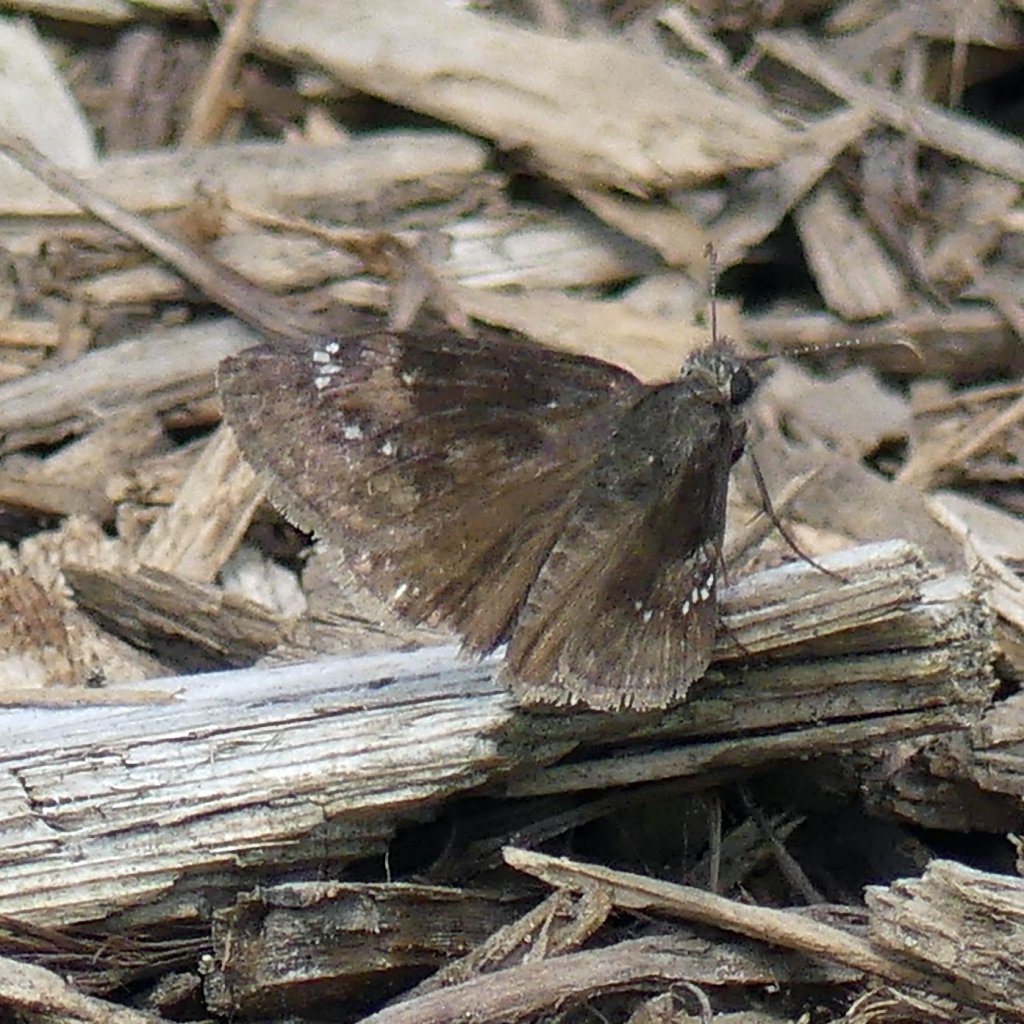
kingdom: Animalia
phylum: Arthropoda
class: Insecta
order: Lepidoptera
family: Hesperiidae
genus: Gesta
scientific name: Gesta
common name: Wild Indigo Duskywing
